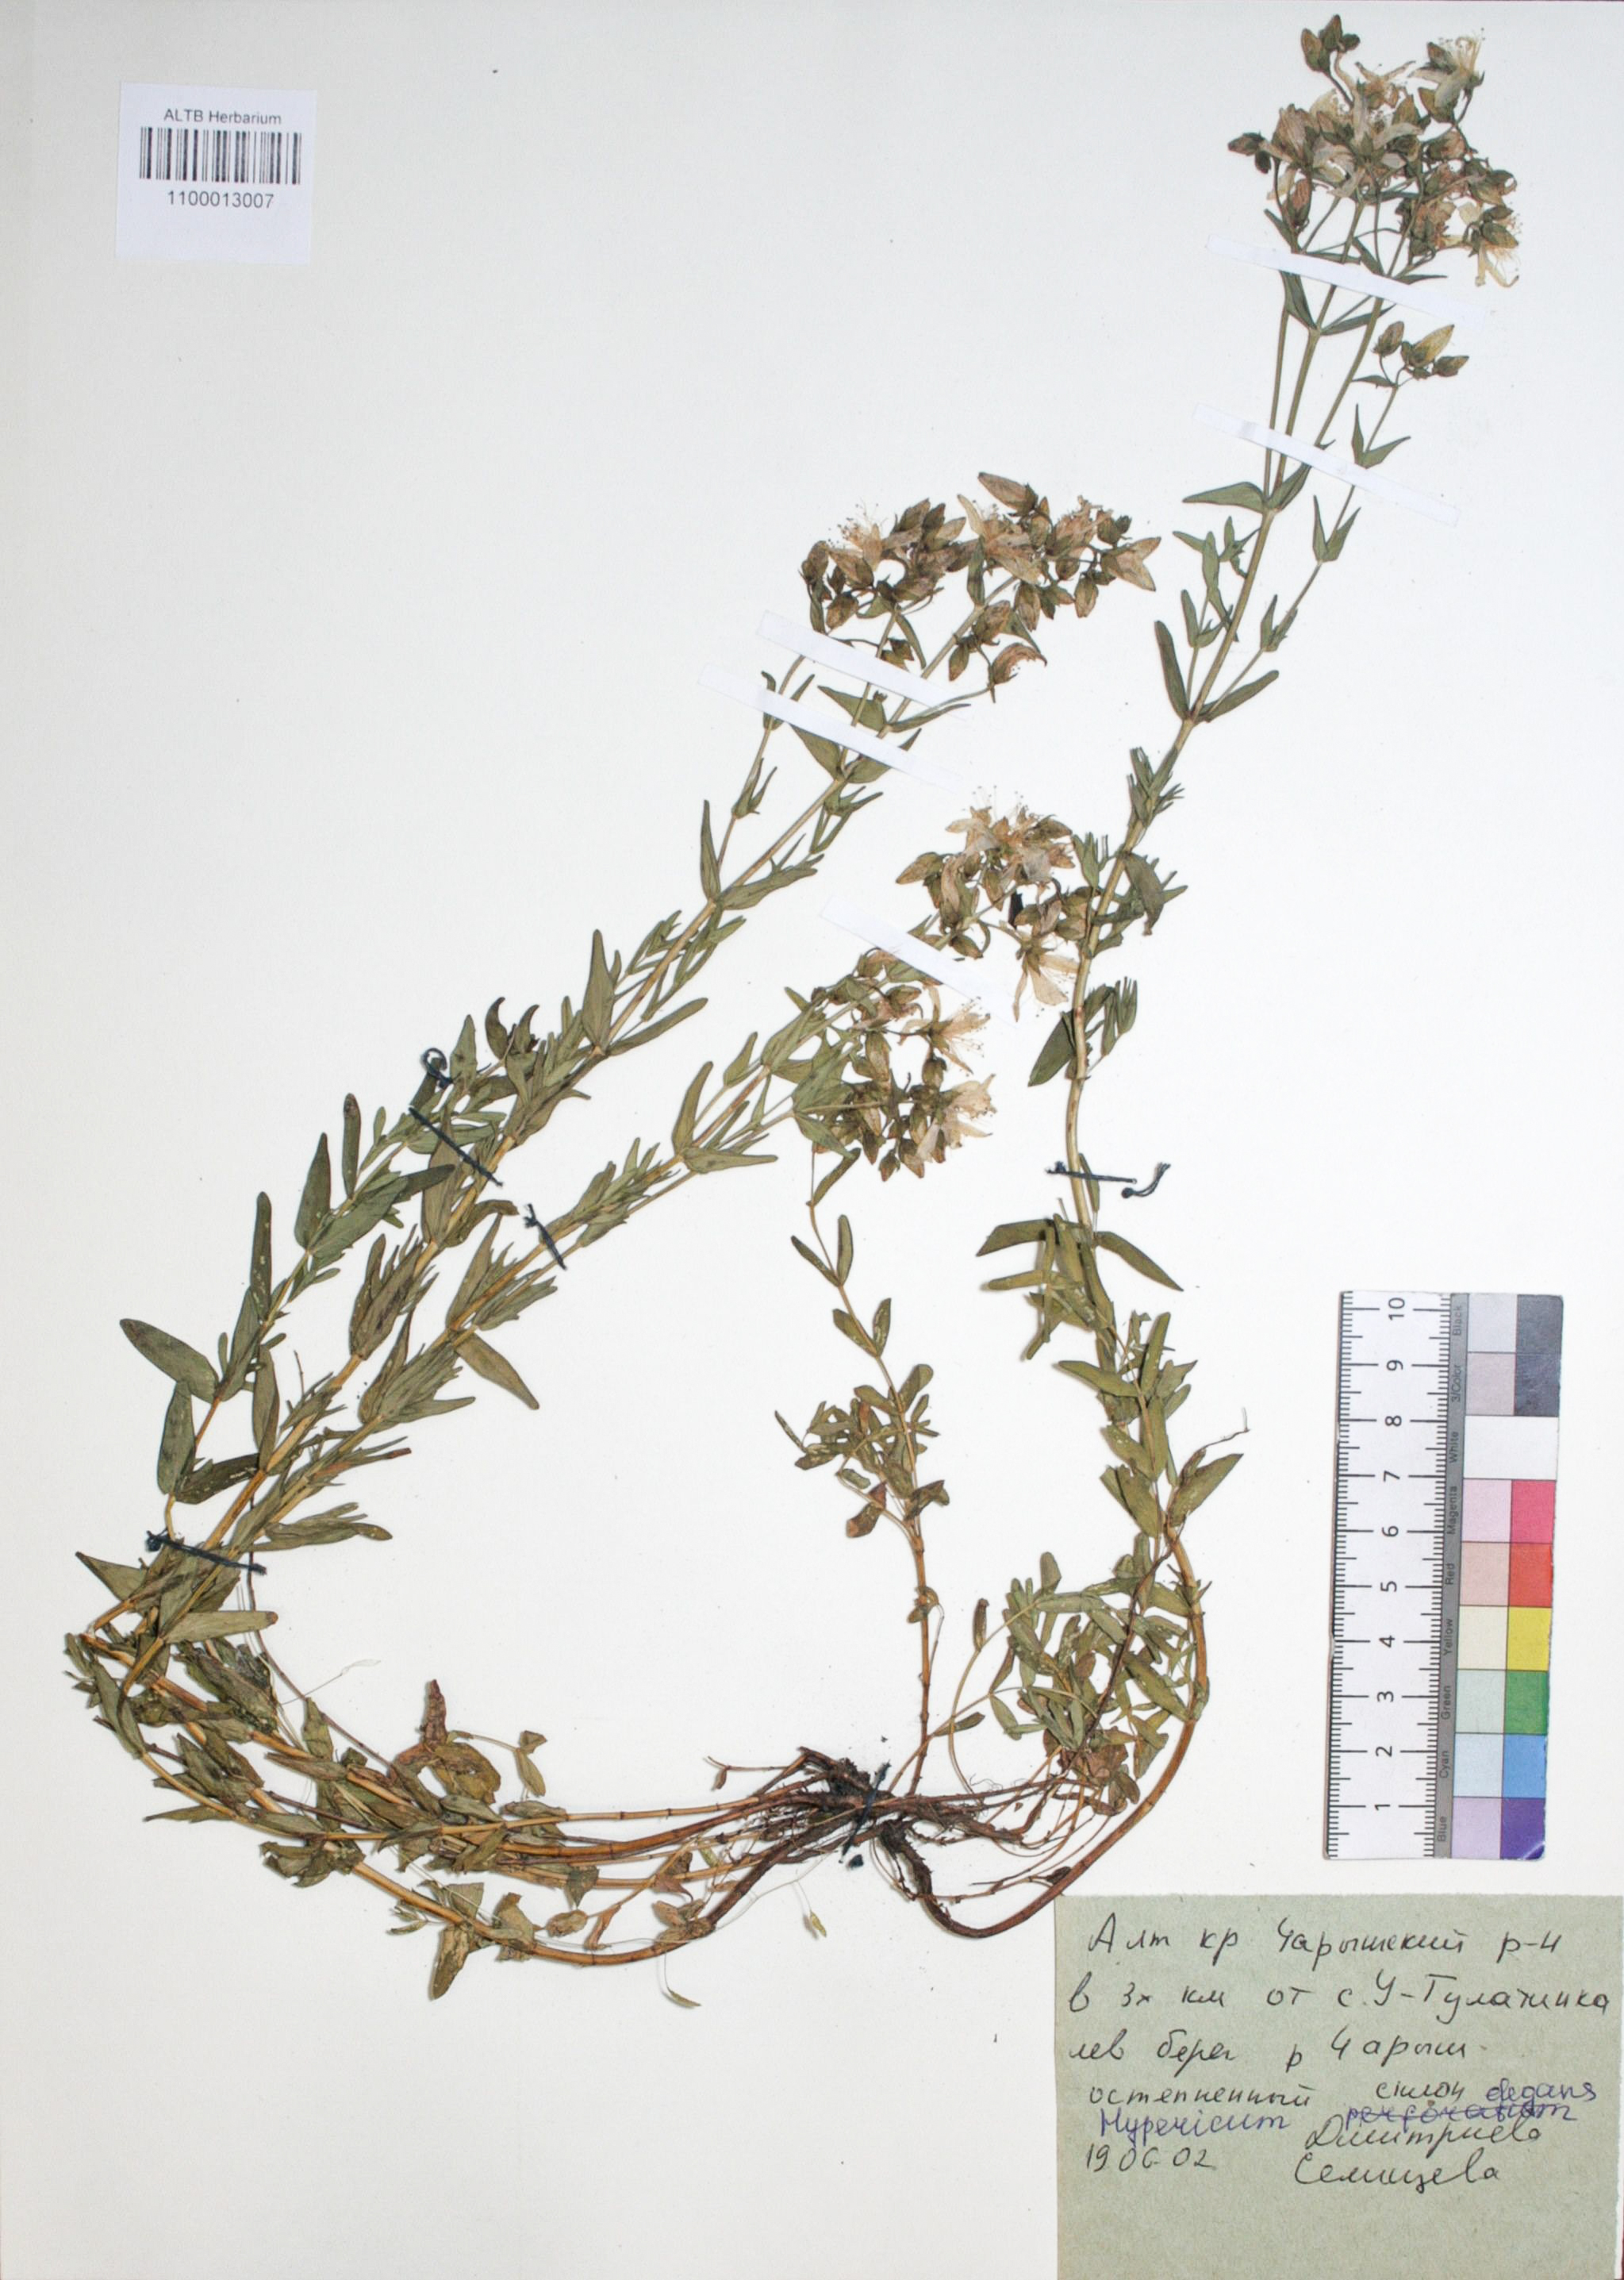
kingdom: Plantae
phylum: Tracheophyta
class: Magnoliopsida
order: Malpighiales
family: Hypericaceae
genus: Hypericum
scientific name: Hypericum elegans
